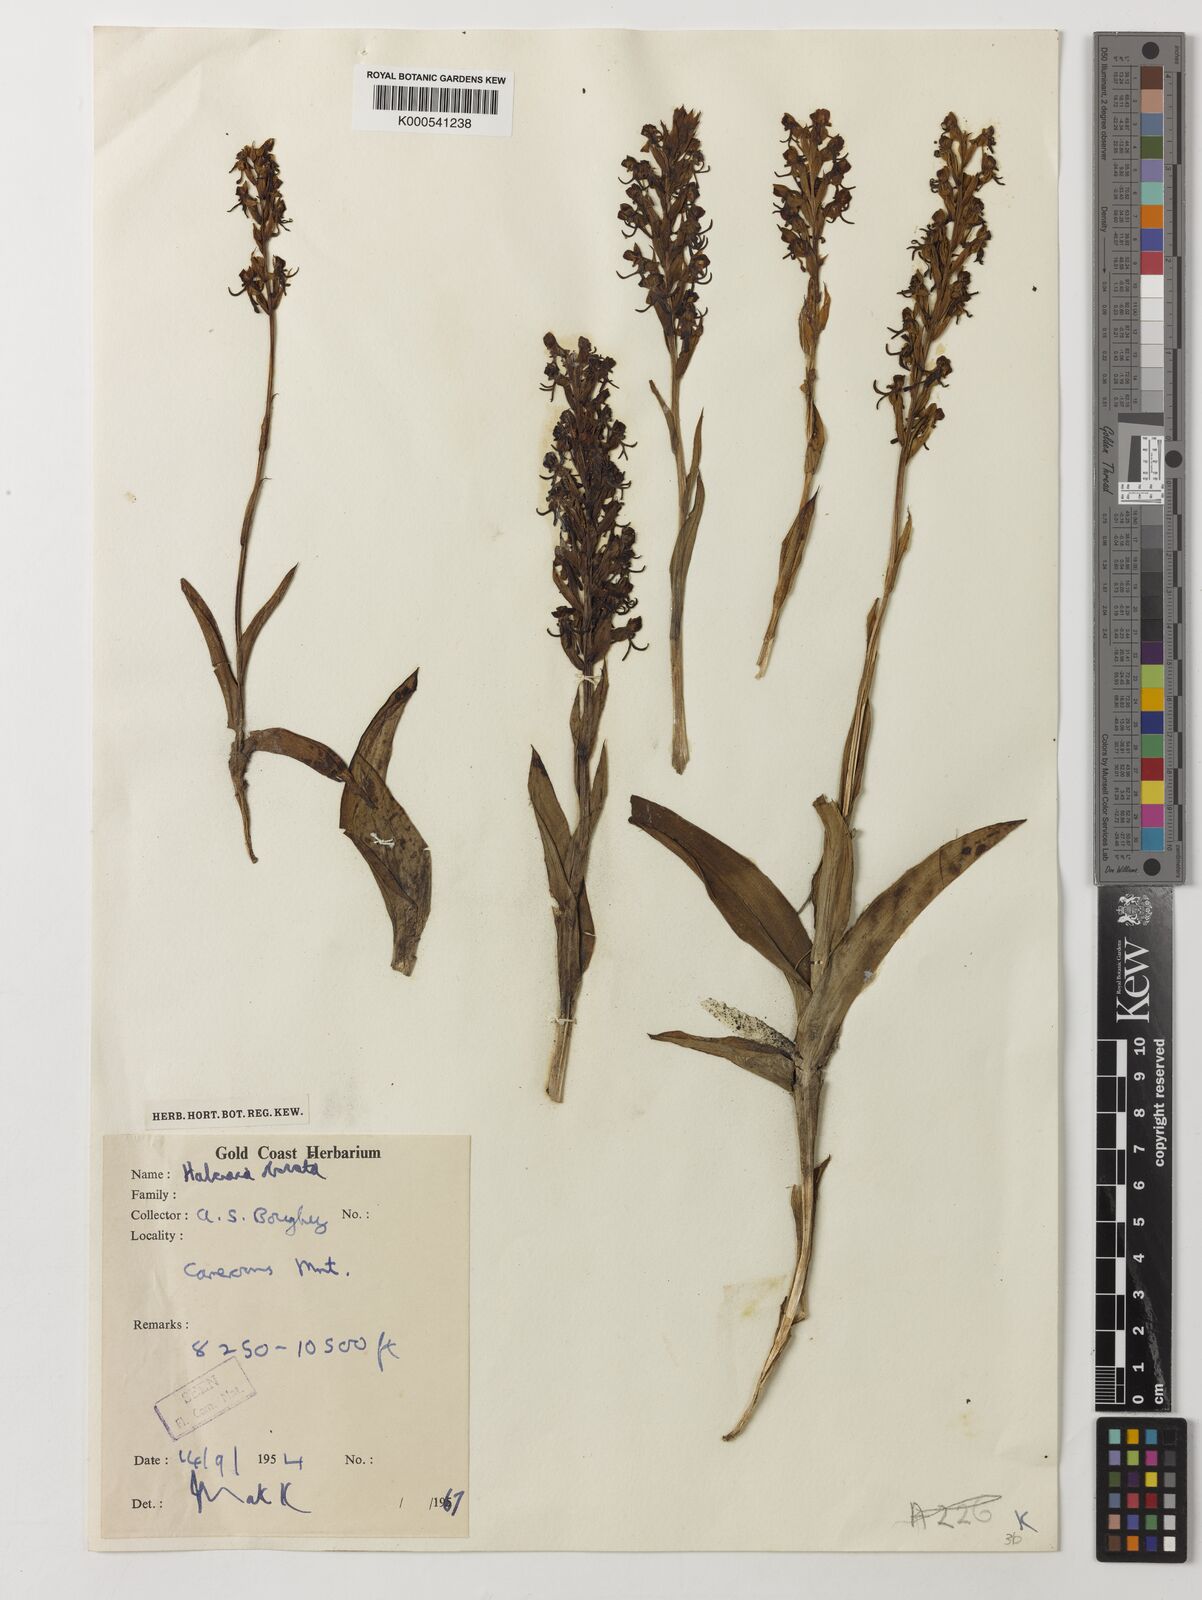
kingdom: Plantae
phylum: Tracheophyta
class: Liliopsida
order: Asparagales
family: Orchidaceae
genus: Habenaria
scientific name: Habenaria obovata
